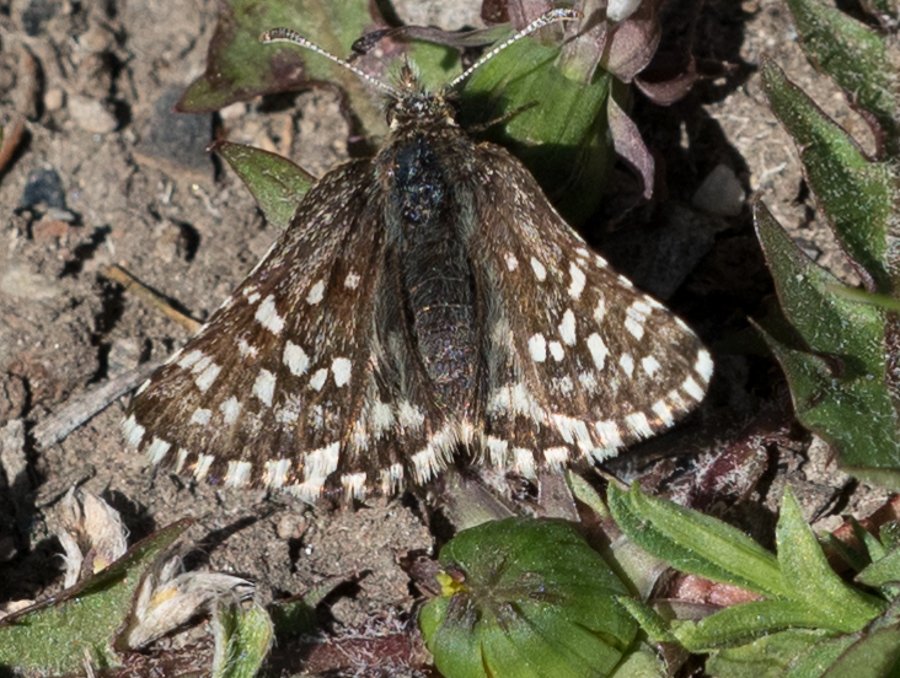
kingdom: Animalia
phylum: Arthropoda
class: Insecta
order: Lepidoptera
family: Hesperiidae
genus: Pyrgus
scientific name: Pyrgus ruralis
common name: Two-banded Checkered-Skipper
